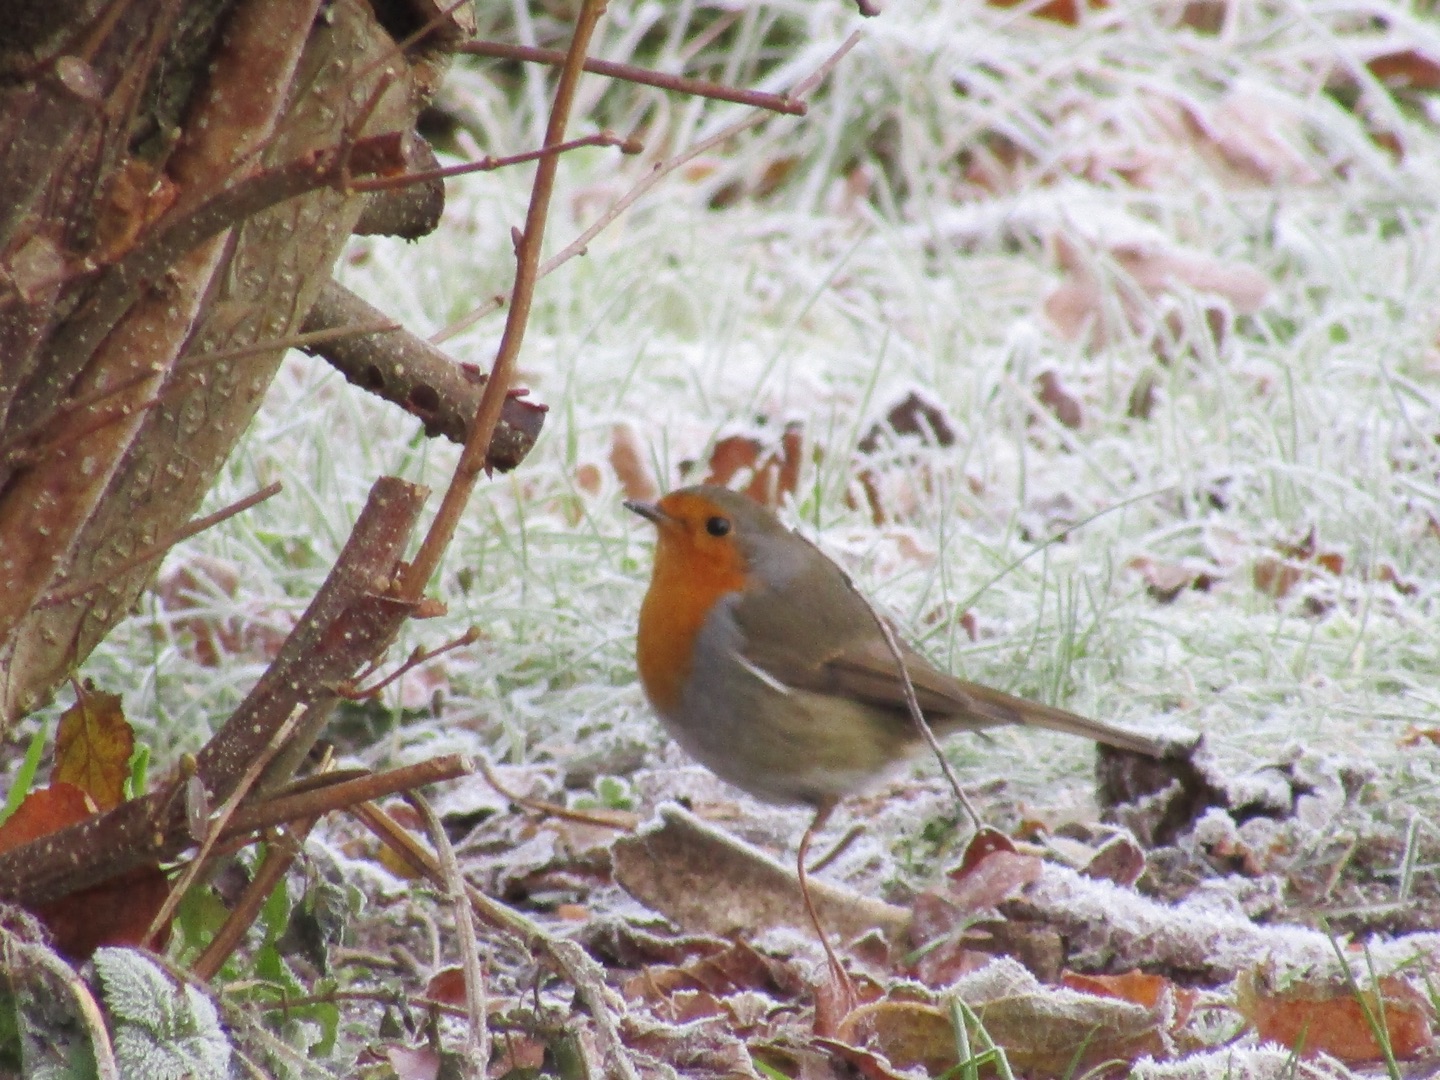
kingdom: Animalia
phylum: Chordata
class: Aves
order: Passeriformes
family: Muscicapidae
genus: Erithacus
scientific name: Erithacus rubecula
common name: Rødhals/rødkælk
